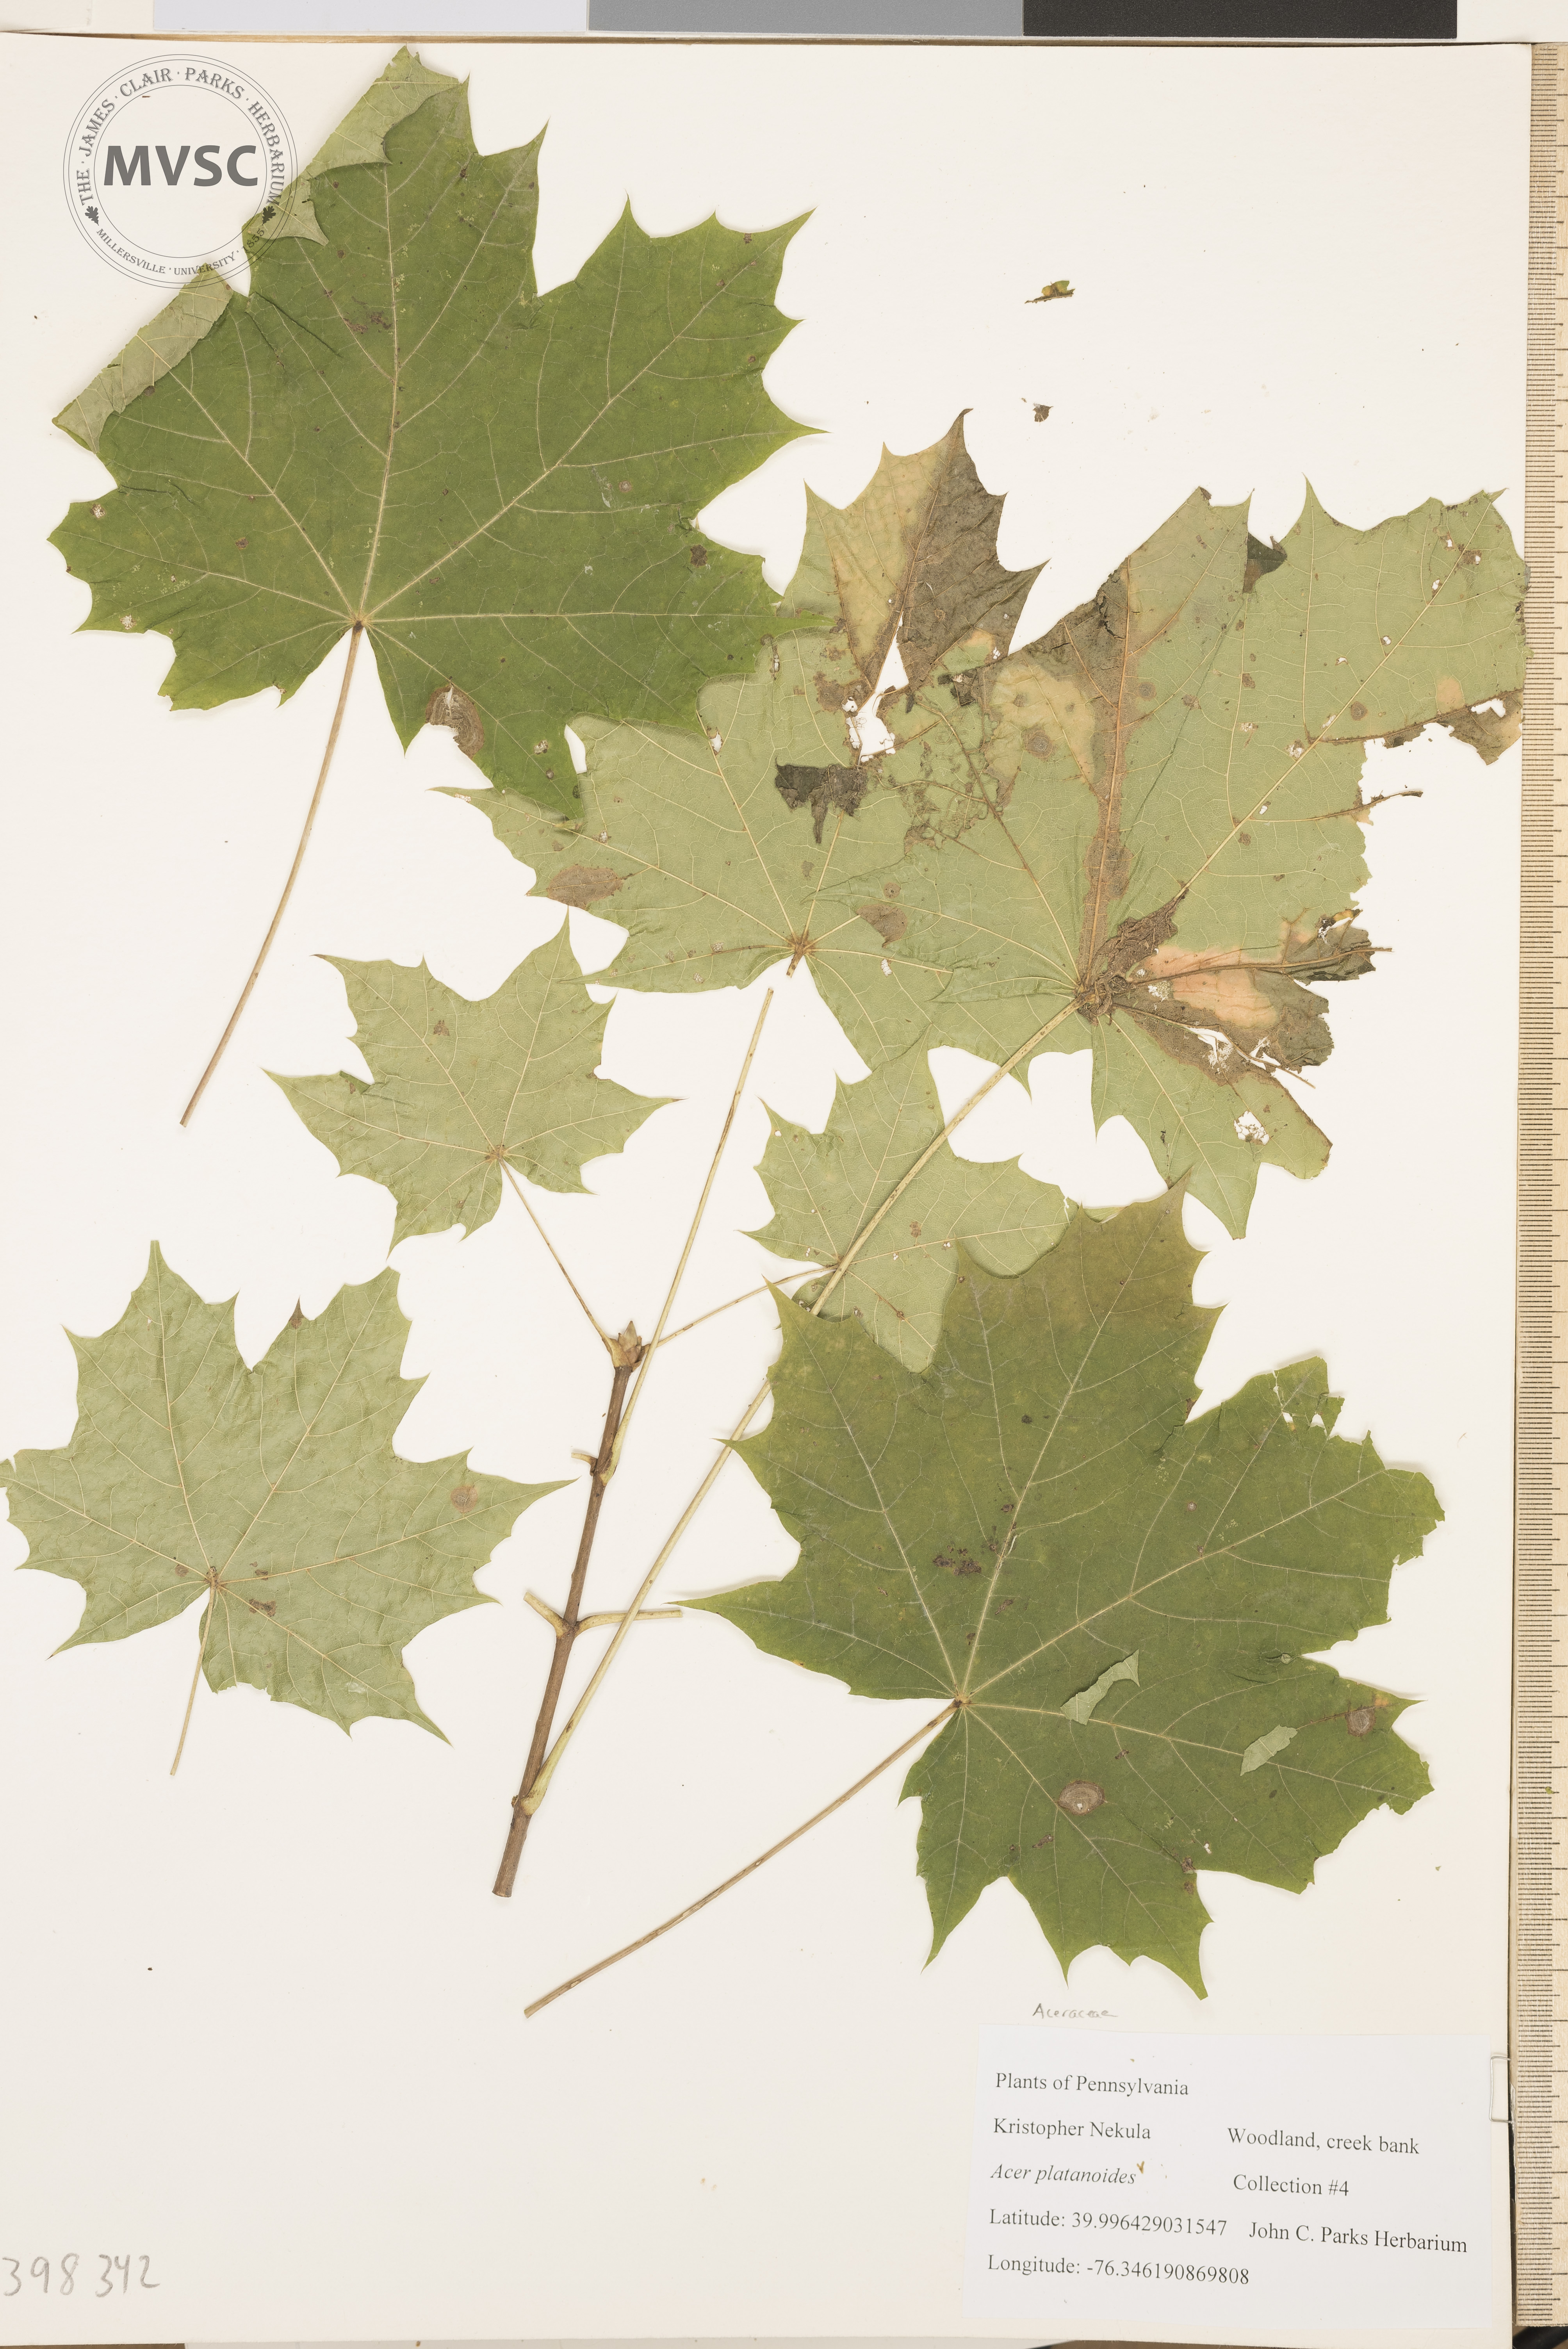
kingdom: Plantae
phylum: Tracheophyta
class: Magnoliopsida
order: Sapindales
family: Sapindaceae
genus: Acer
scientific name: Acer platanoides
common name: Norway maple
